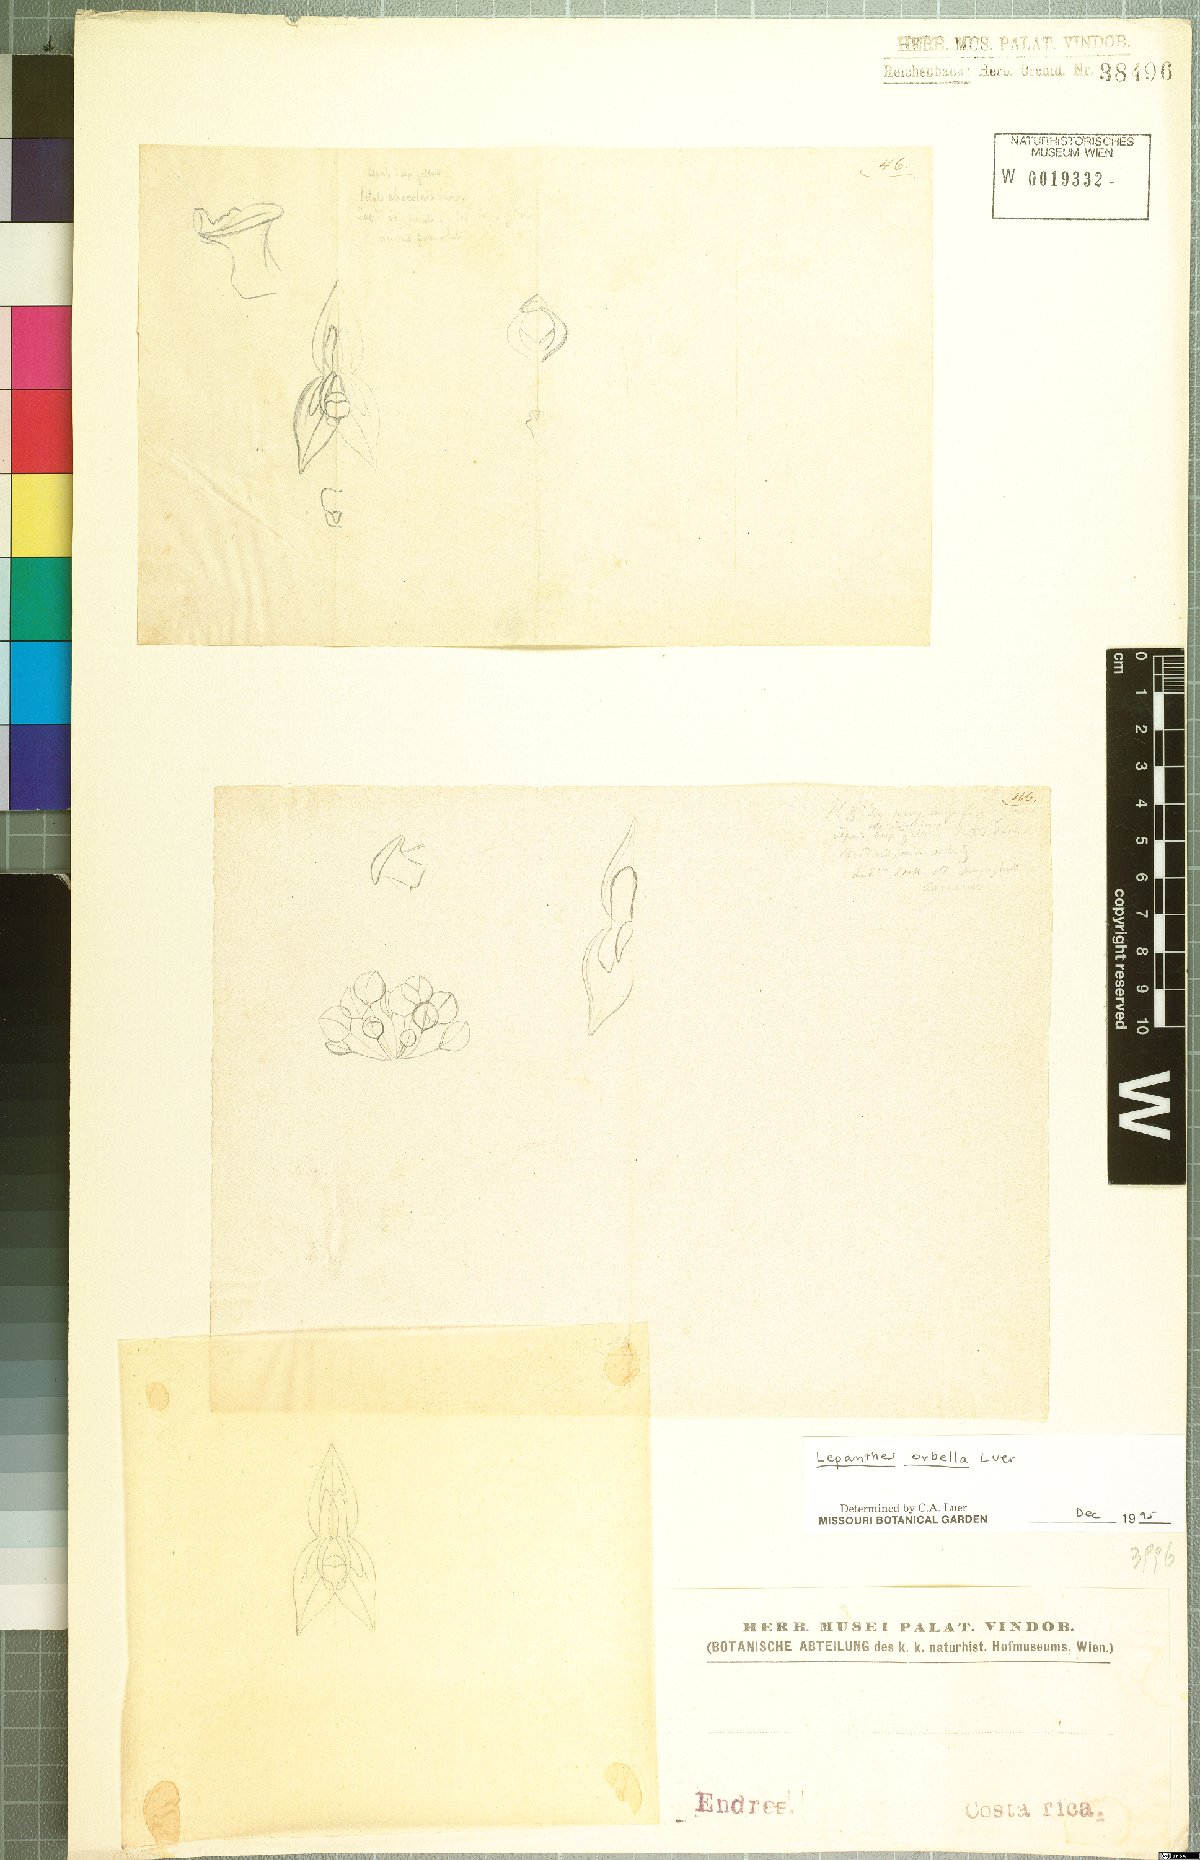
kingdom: Plantae
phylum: Tracheophyta
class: Liliopsida
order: Asparagales
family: Orchidaceae
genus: Lepanthes
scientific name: Lepanthes orbella
